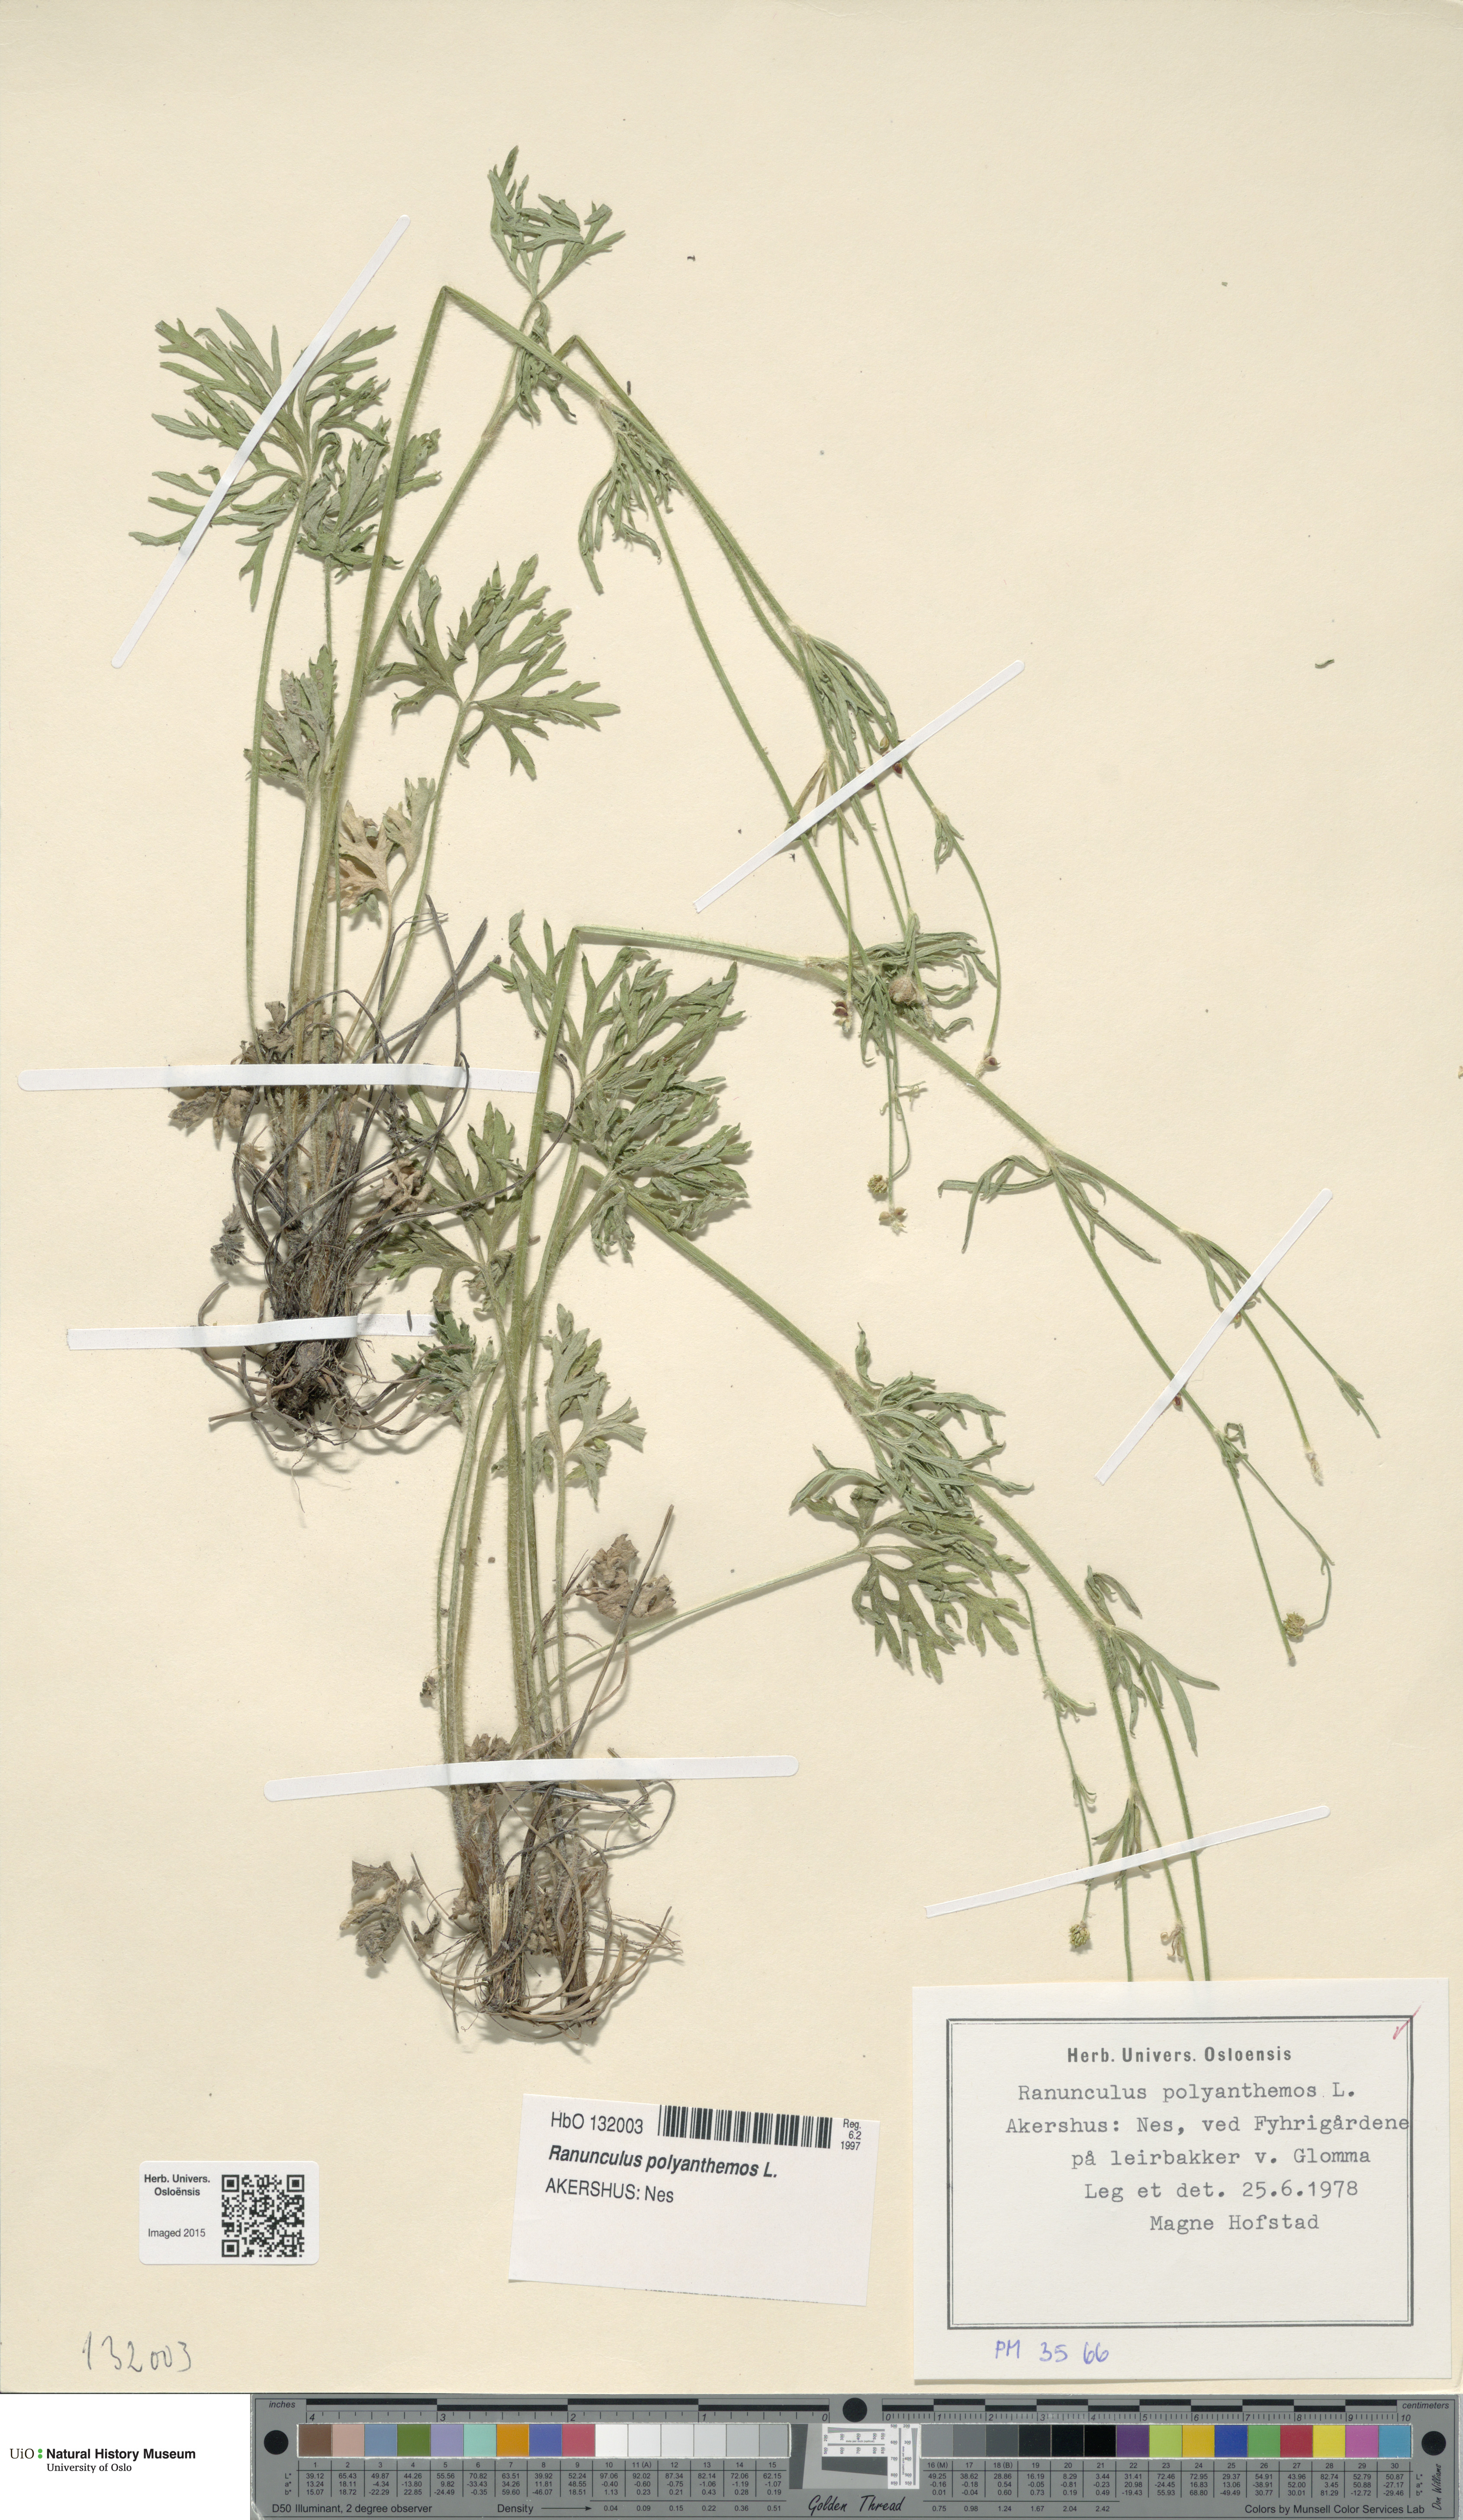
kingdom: Plantae
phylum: Tracheophyta
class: Magnoliopsida
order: Ranunculales
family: Ranunculaceae
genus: Ranunculus
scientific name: Ranunculus polyanthemos
